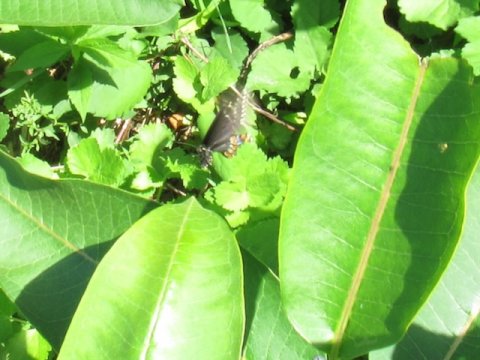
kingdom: Animalia
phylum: Arthropoda
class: Insecta
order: Lepidoptera
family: Papilionidae
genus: Papilio
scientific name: Papilio polyxenes
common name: Black Swallowtail
